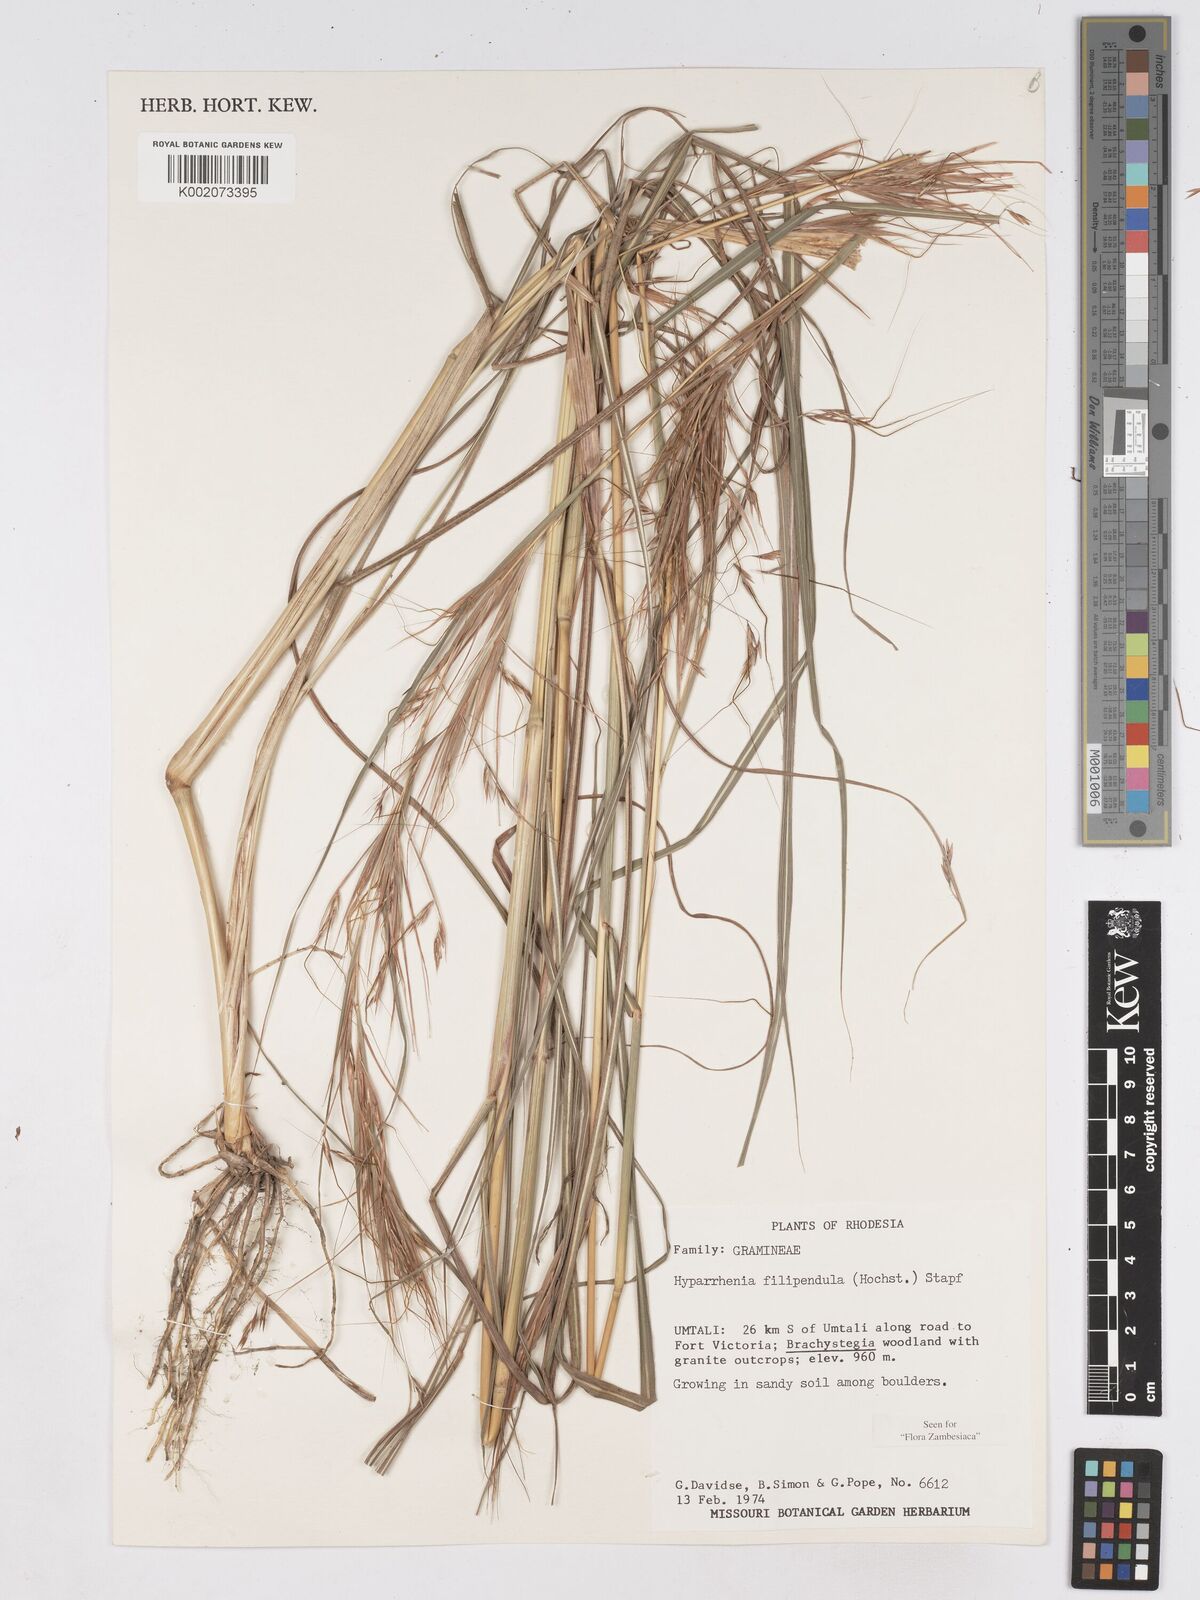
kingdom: Plantae
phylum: Tracheophyta
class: Liliopsida
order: Poales
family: Poaceae
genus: Hyparrhenia
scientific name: Hyparrhenia filipendula
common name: Tambookie grass
